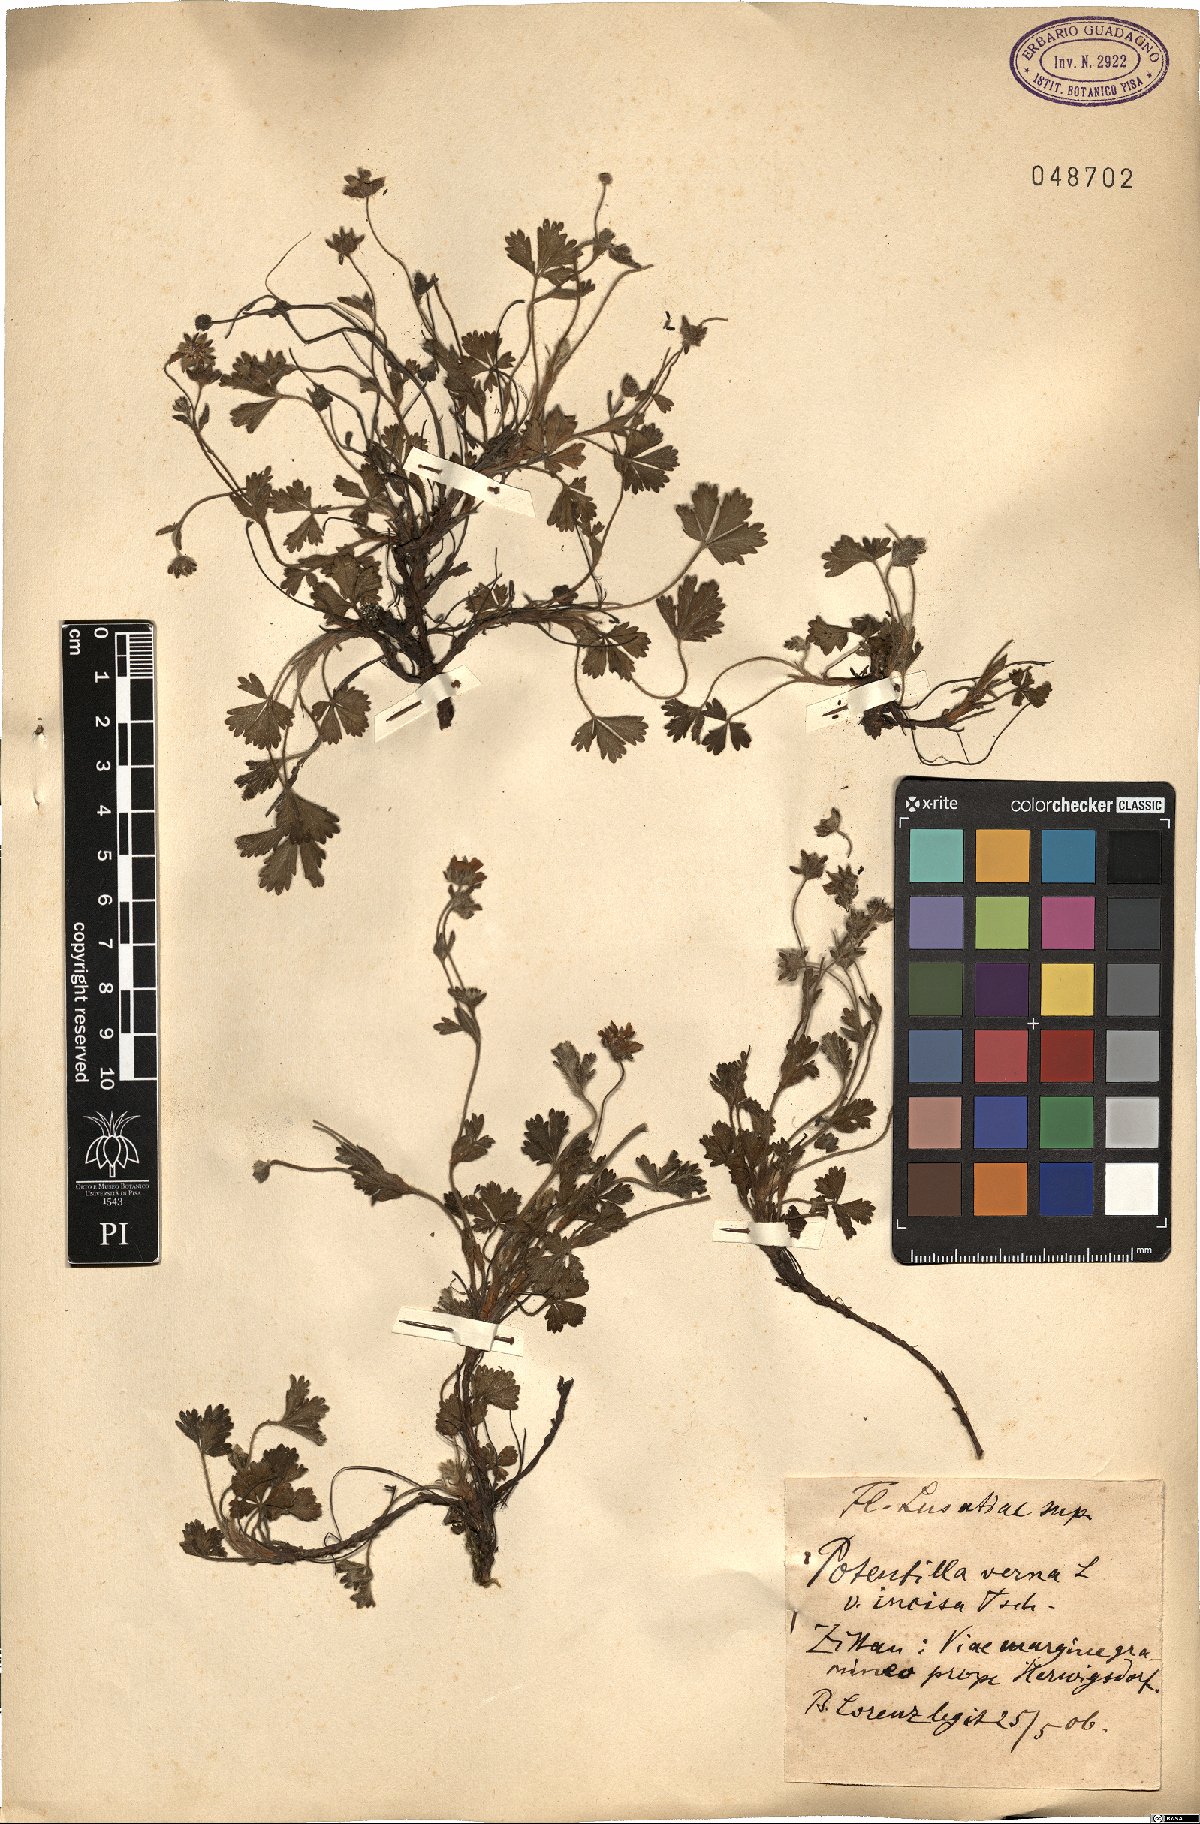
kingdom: Plantae
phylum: Tracheophyta
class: Magnoliopsida
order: Rosales
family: Rosaceae
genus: Potentilla
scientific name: Potentilla verna
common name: Spring cinquefoil
